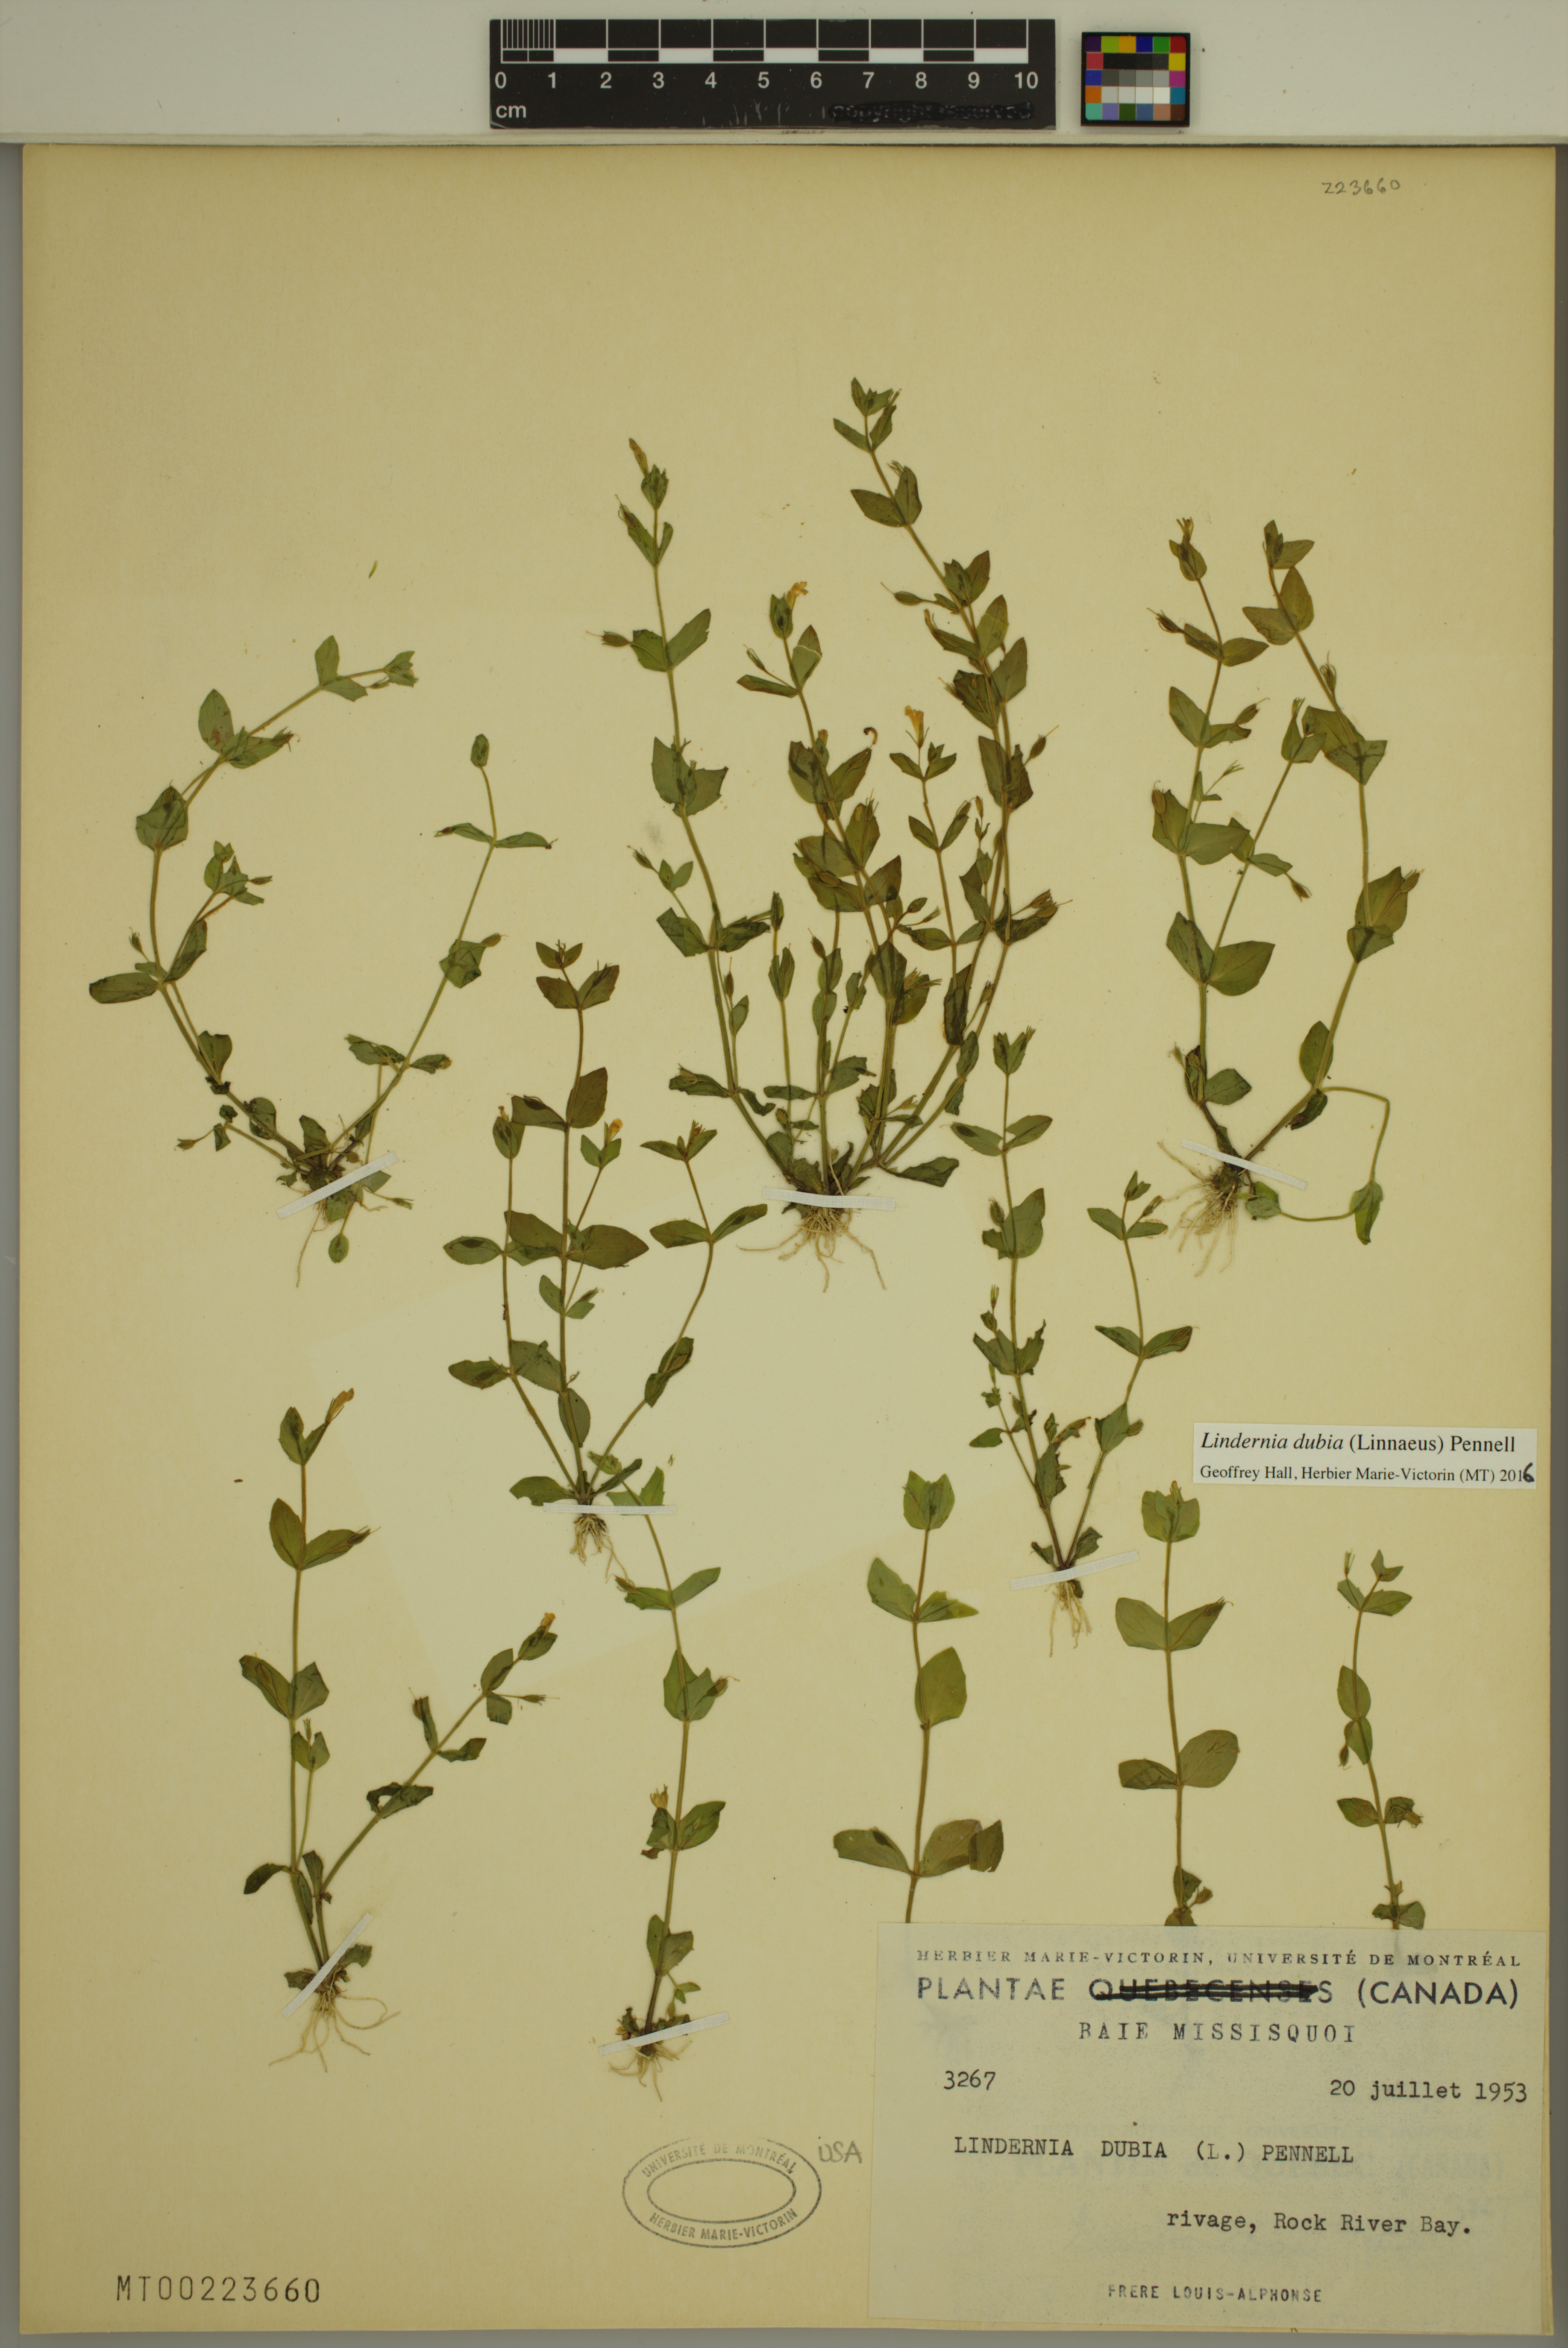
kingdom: Plantae
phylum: Tracheophyta
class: Magnoliopsida
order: Lamiales
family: Linderniaceae
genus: Lindernia
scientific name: Lindernia dubia
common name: Annual false pimpernel
